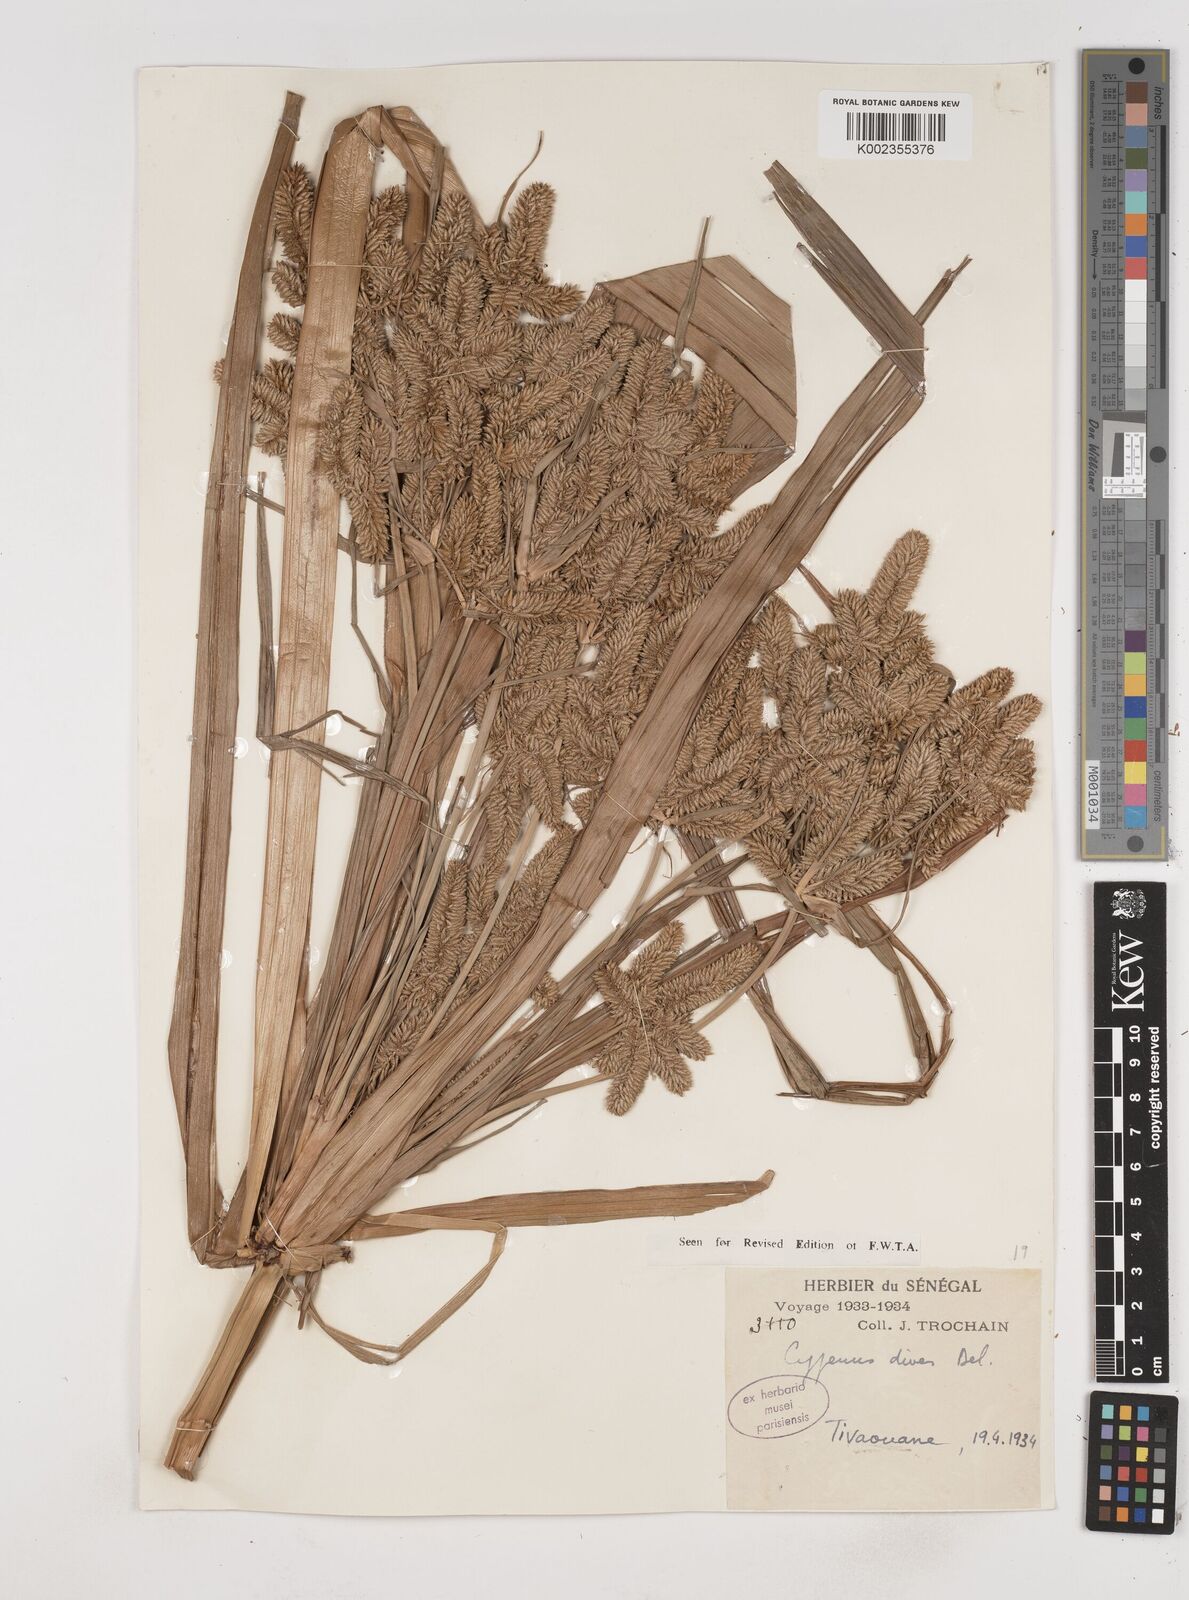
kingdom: Plantae
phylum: Tracheophyta
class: Liliopsida
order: Poales
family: Cyperaceae
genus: Cyperus
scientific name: Cyperus dives
